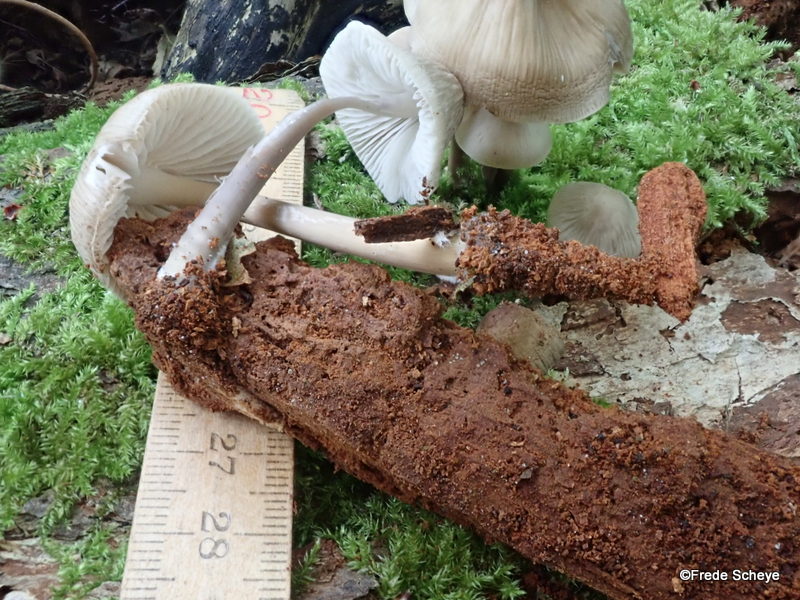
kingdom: Fungi
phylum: Basidiomycota
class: Agaricomycetes
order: Agaricales
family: Mycenaceae
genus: Mycena
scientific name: Mycena galericulata
